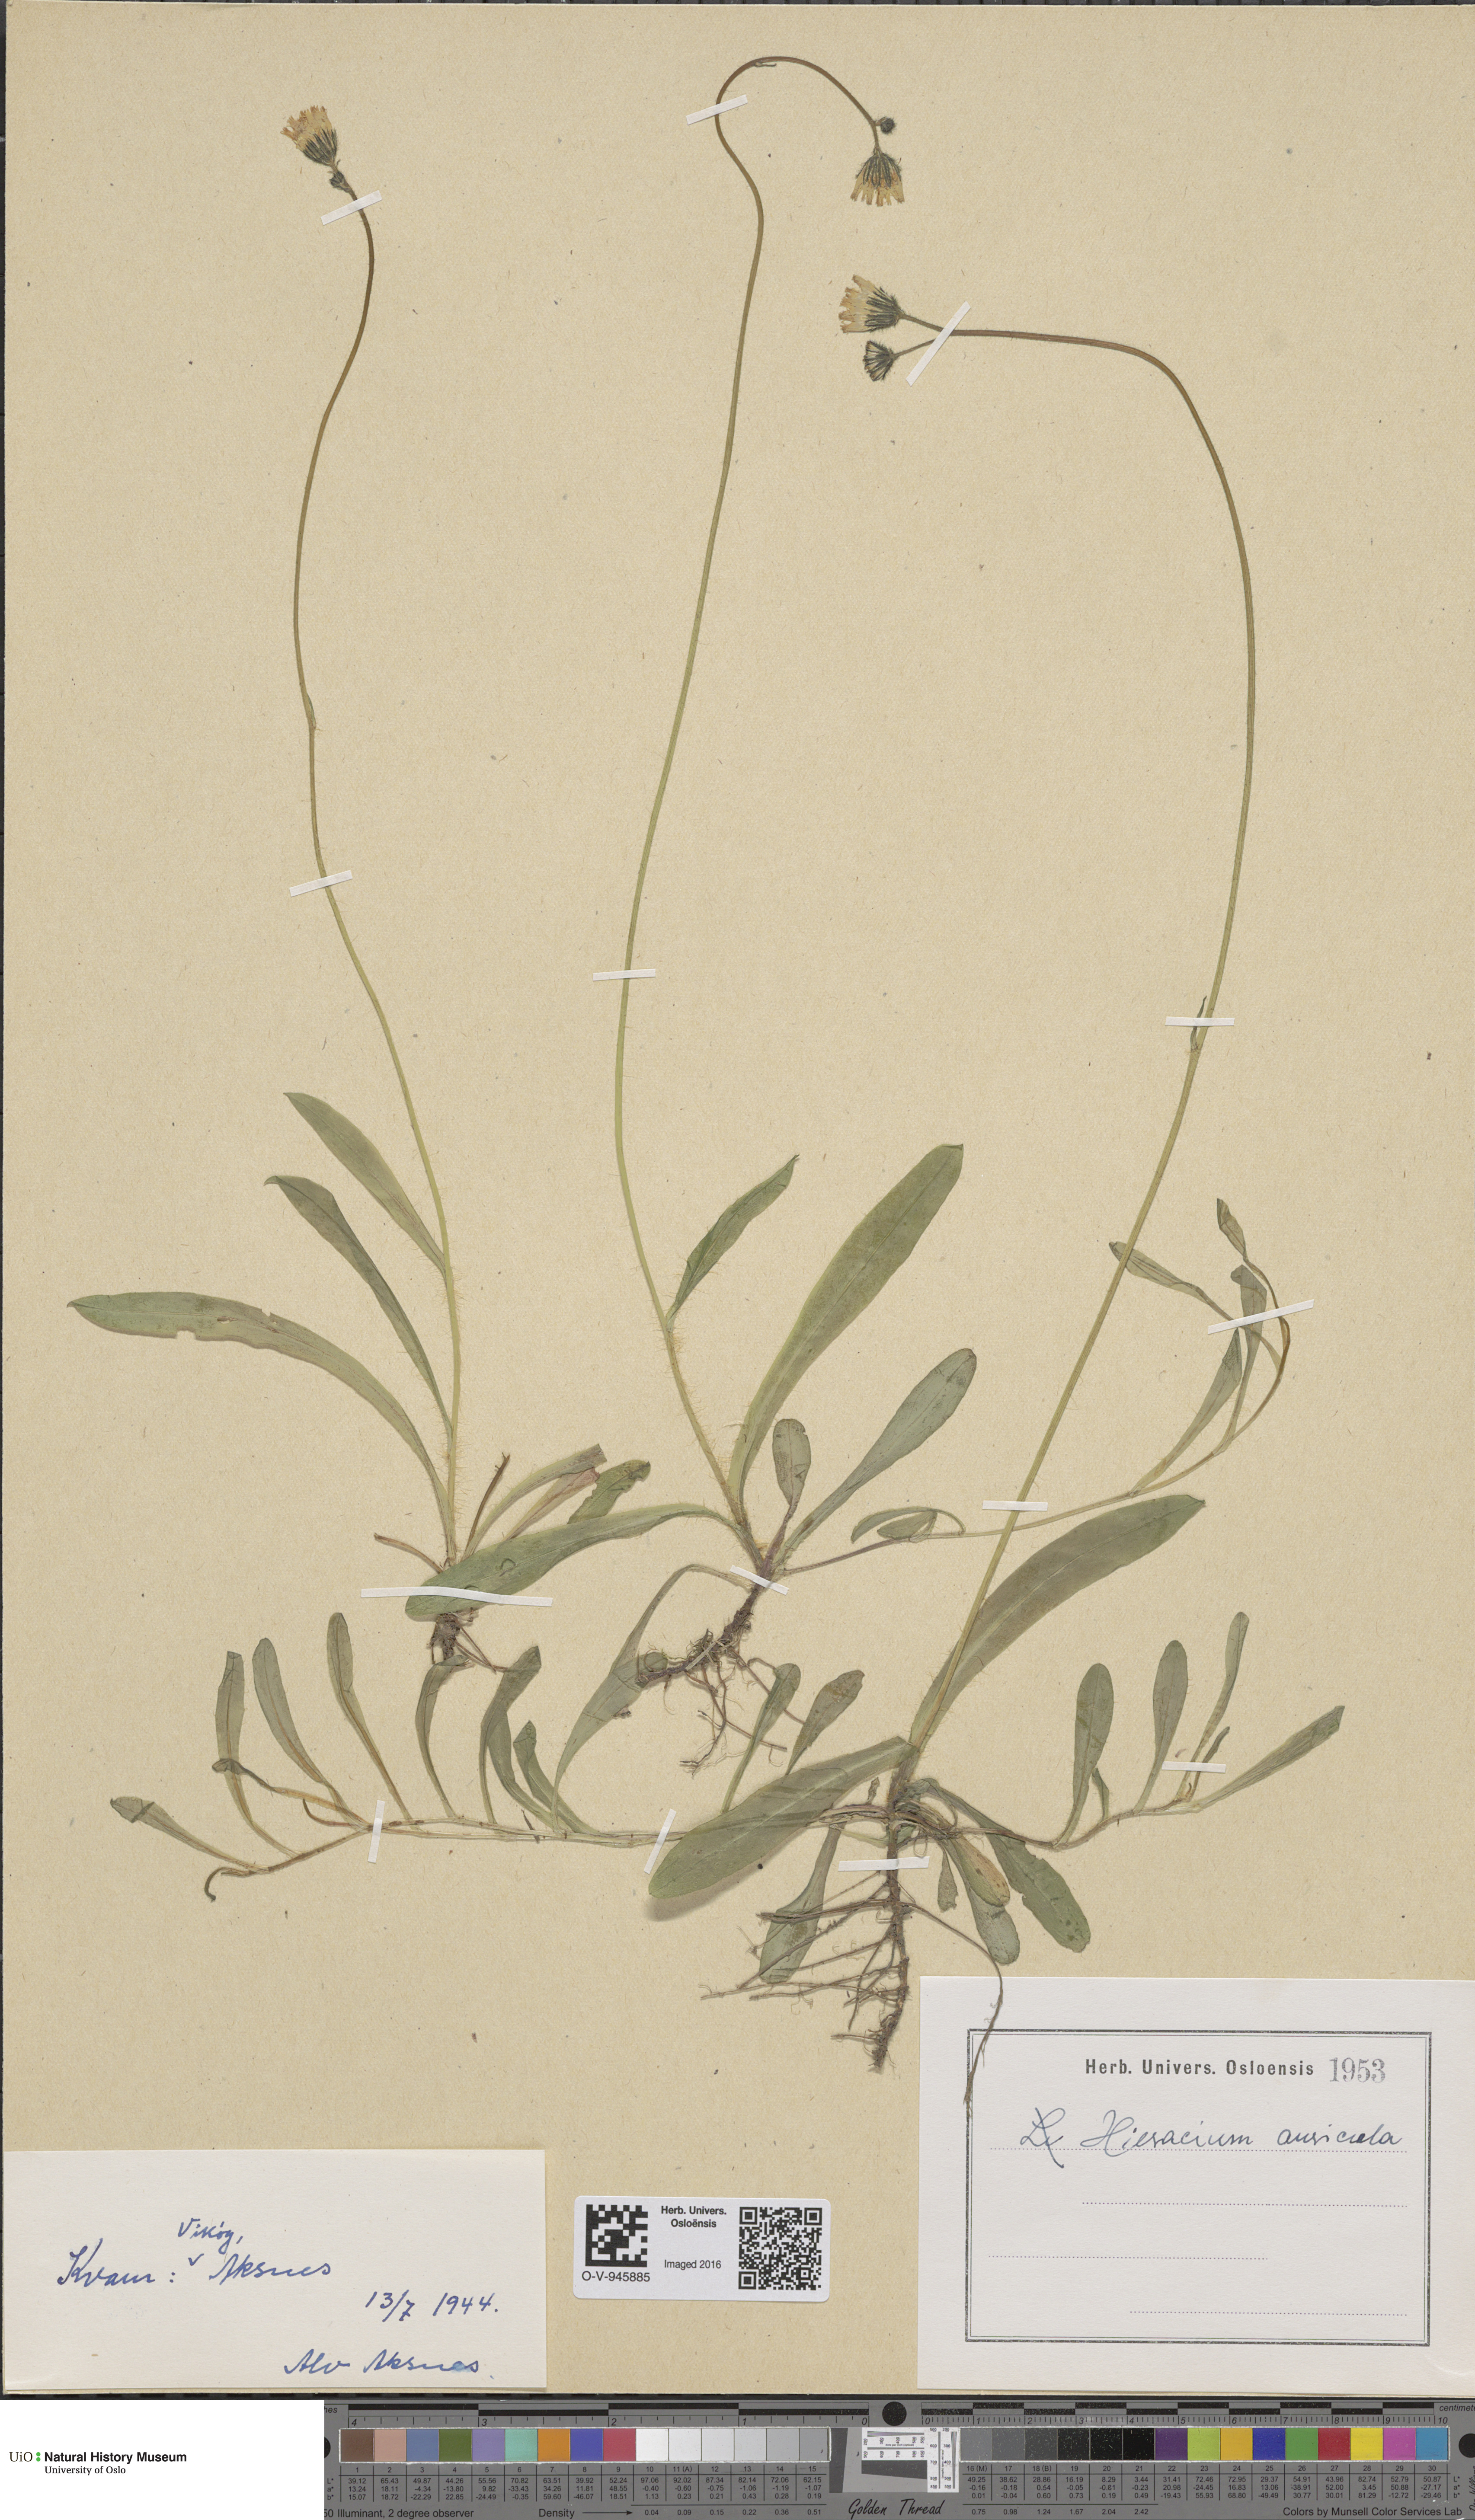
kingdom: Plantae
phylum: Tracheophyta
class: Magnoliopsida
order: Asterales
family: Asteraceae
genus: Pilosella
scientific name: Pilosella lactucella
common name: Glaucous fox-and-cubs
